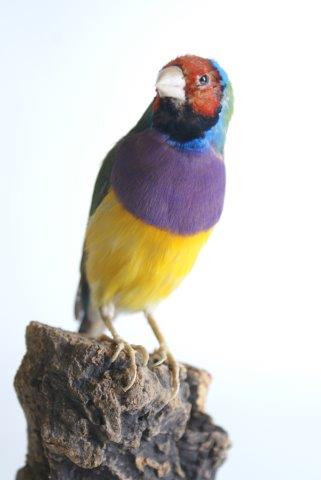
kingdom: Animalia
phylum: Chordata
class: Aves
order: Passeriformes
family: Estrildidae
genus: Erythrura
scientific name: Erythrura gouldiae
